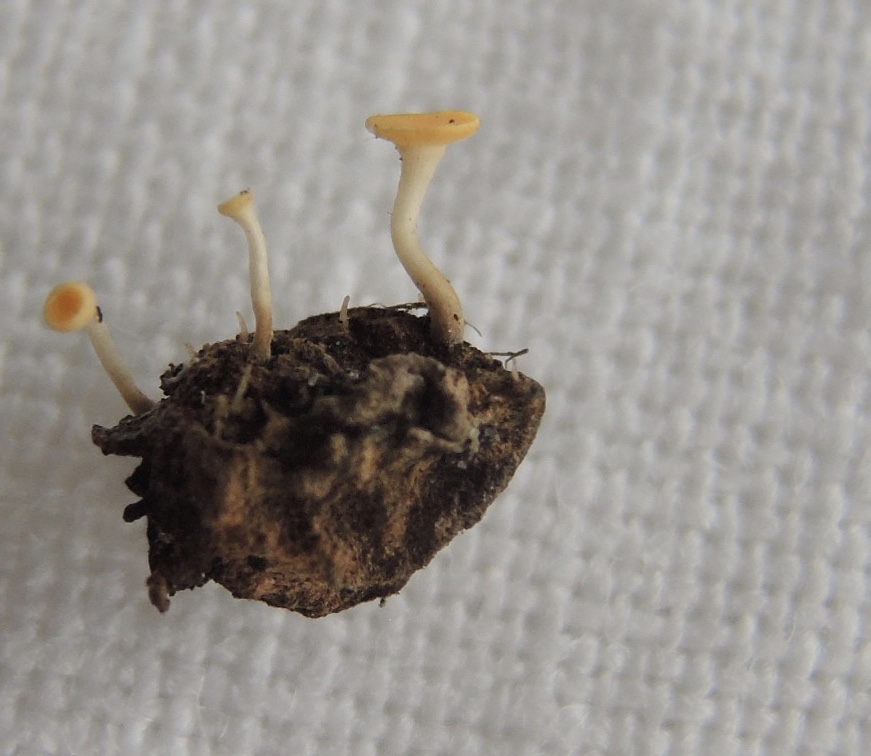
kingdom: Fungi
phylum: Ascomycota
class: Leotiomycetes
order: Helotiales
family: Helotiaceae
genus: Hymenoscyphus
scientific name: Hymenoscyphus
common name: stilkskive
